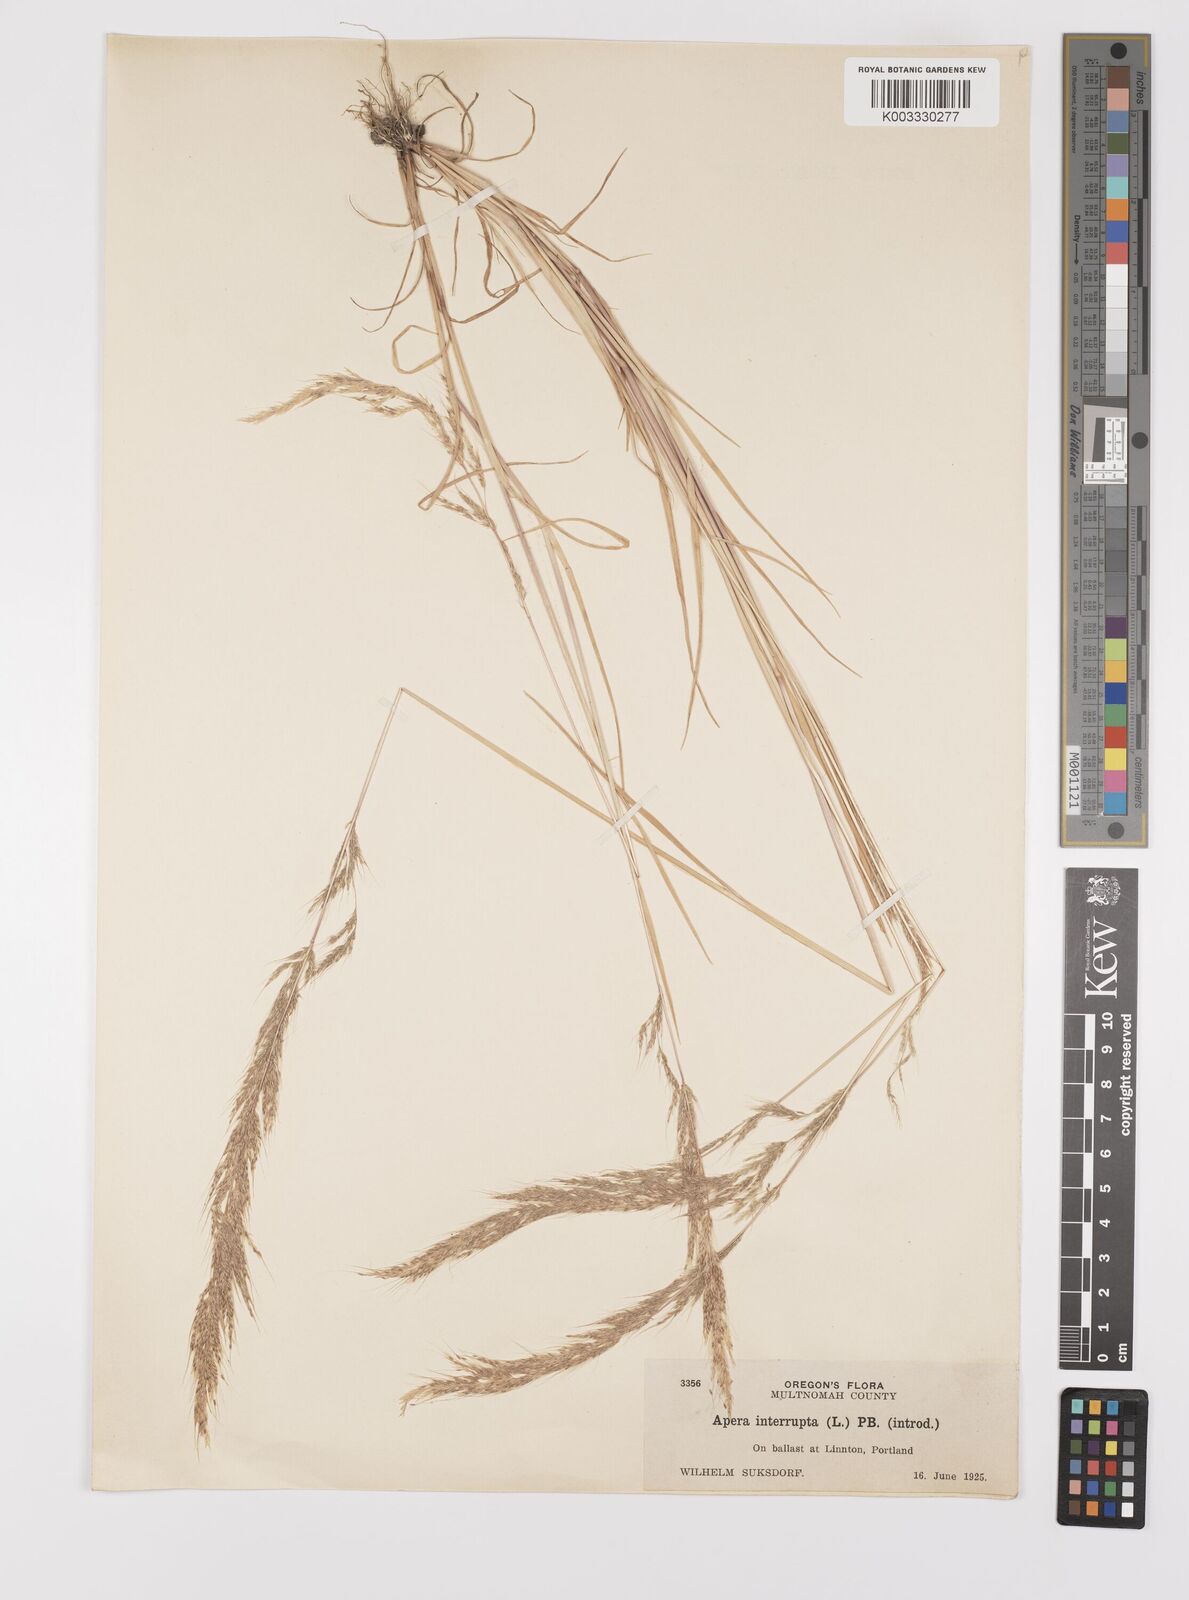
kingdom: Plantae
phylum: Tracheophyta
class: Liliopsida
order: Poales
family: Poaceae
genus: Apera
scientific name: Apera interrupta
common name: Dense silky-bent
